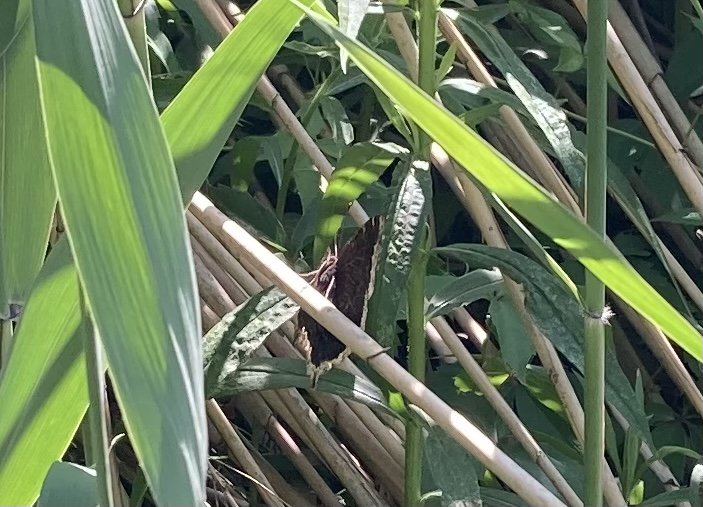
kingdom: Animalia
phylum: Arthropoda
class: Insecta
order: Lepidoptera
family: Nymphalidae
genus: Nymphalis
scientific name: Nymphalis antiopa
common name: Mourning Cloak
